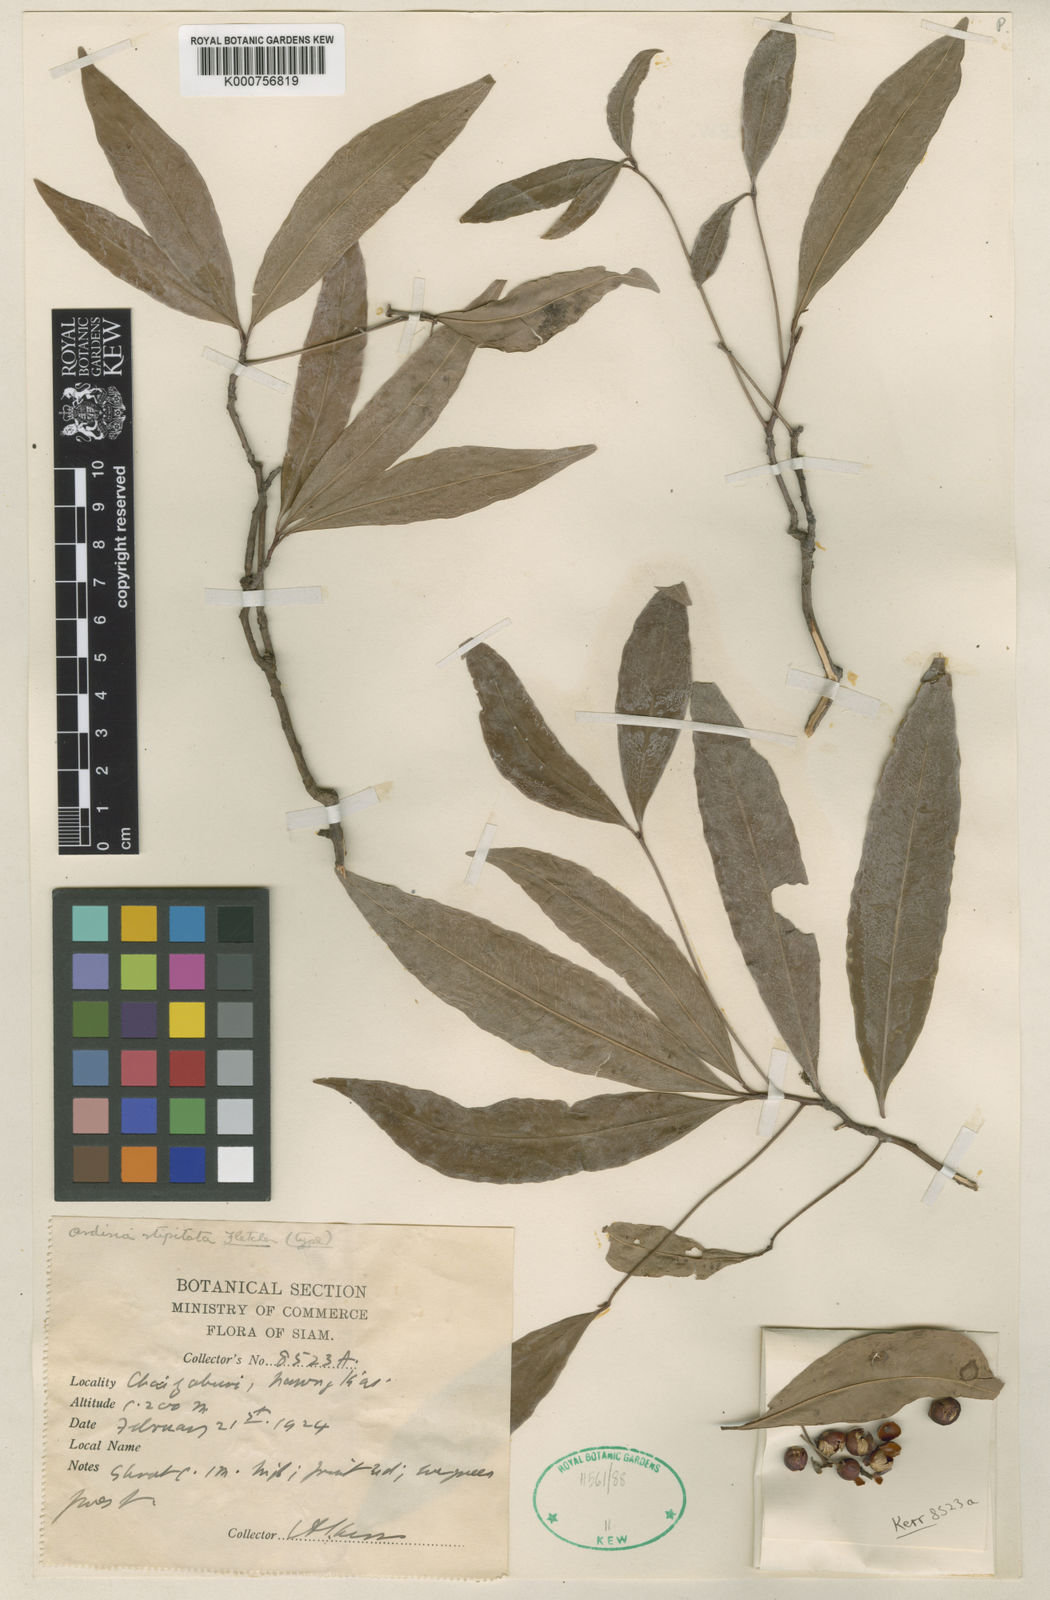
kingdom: Plantae
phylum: Tracheophyta
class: Magnoliopsida
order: Ericales
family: Primulaceae
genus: Ardisia
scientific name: Ardisia stipitata
